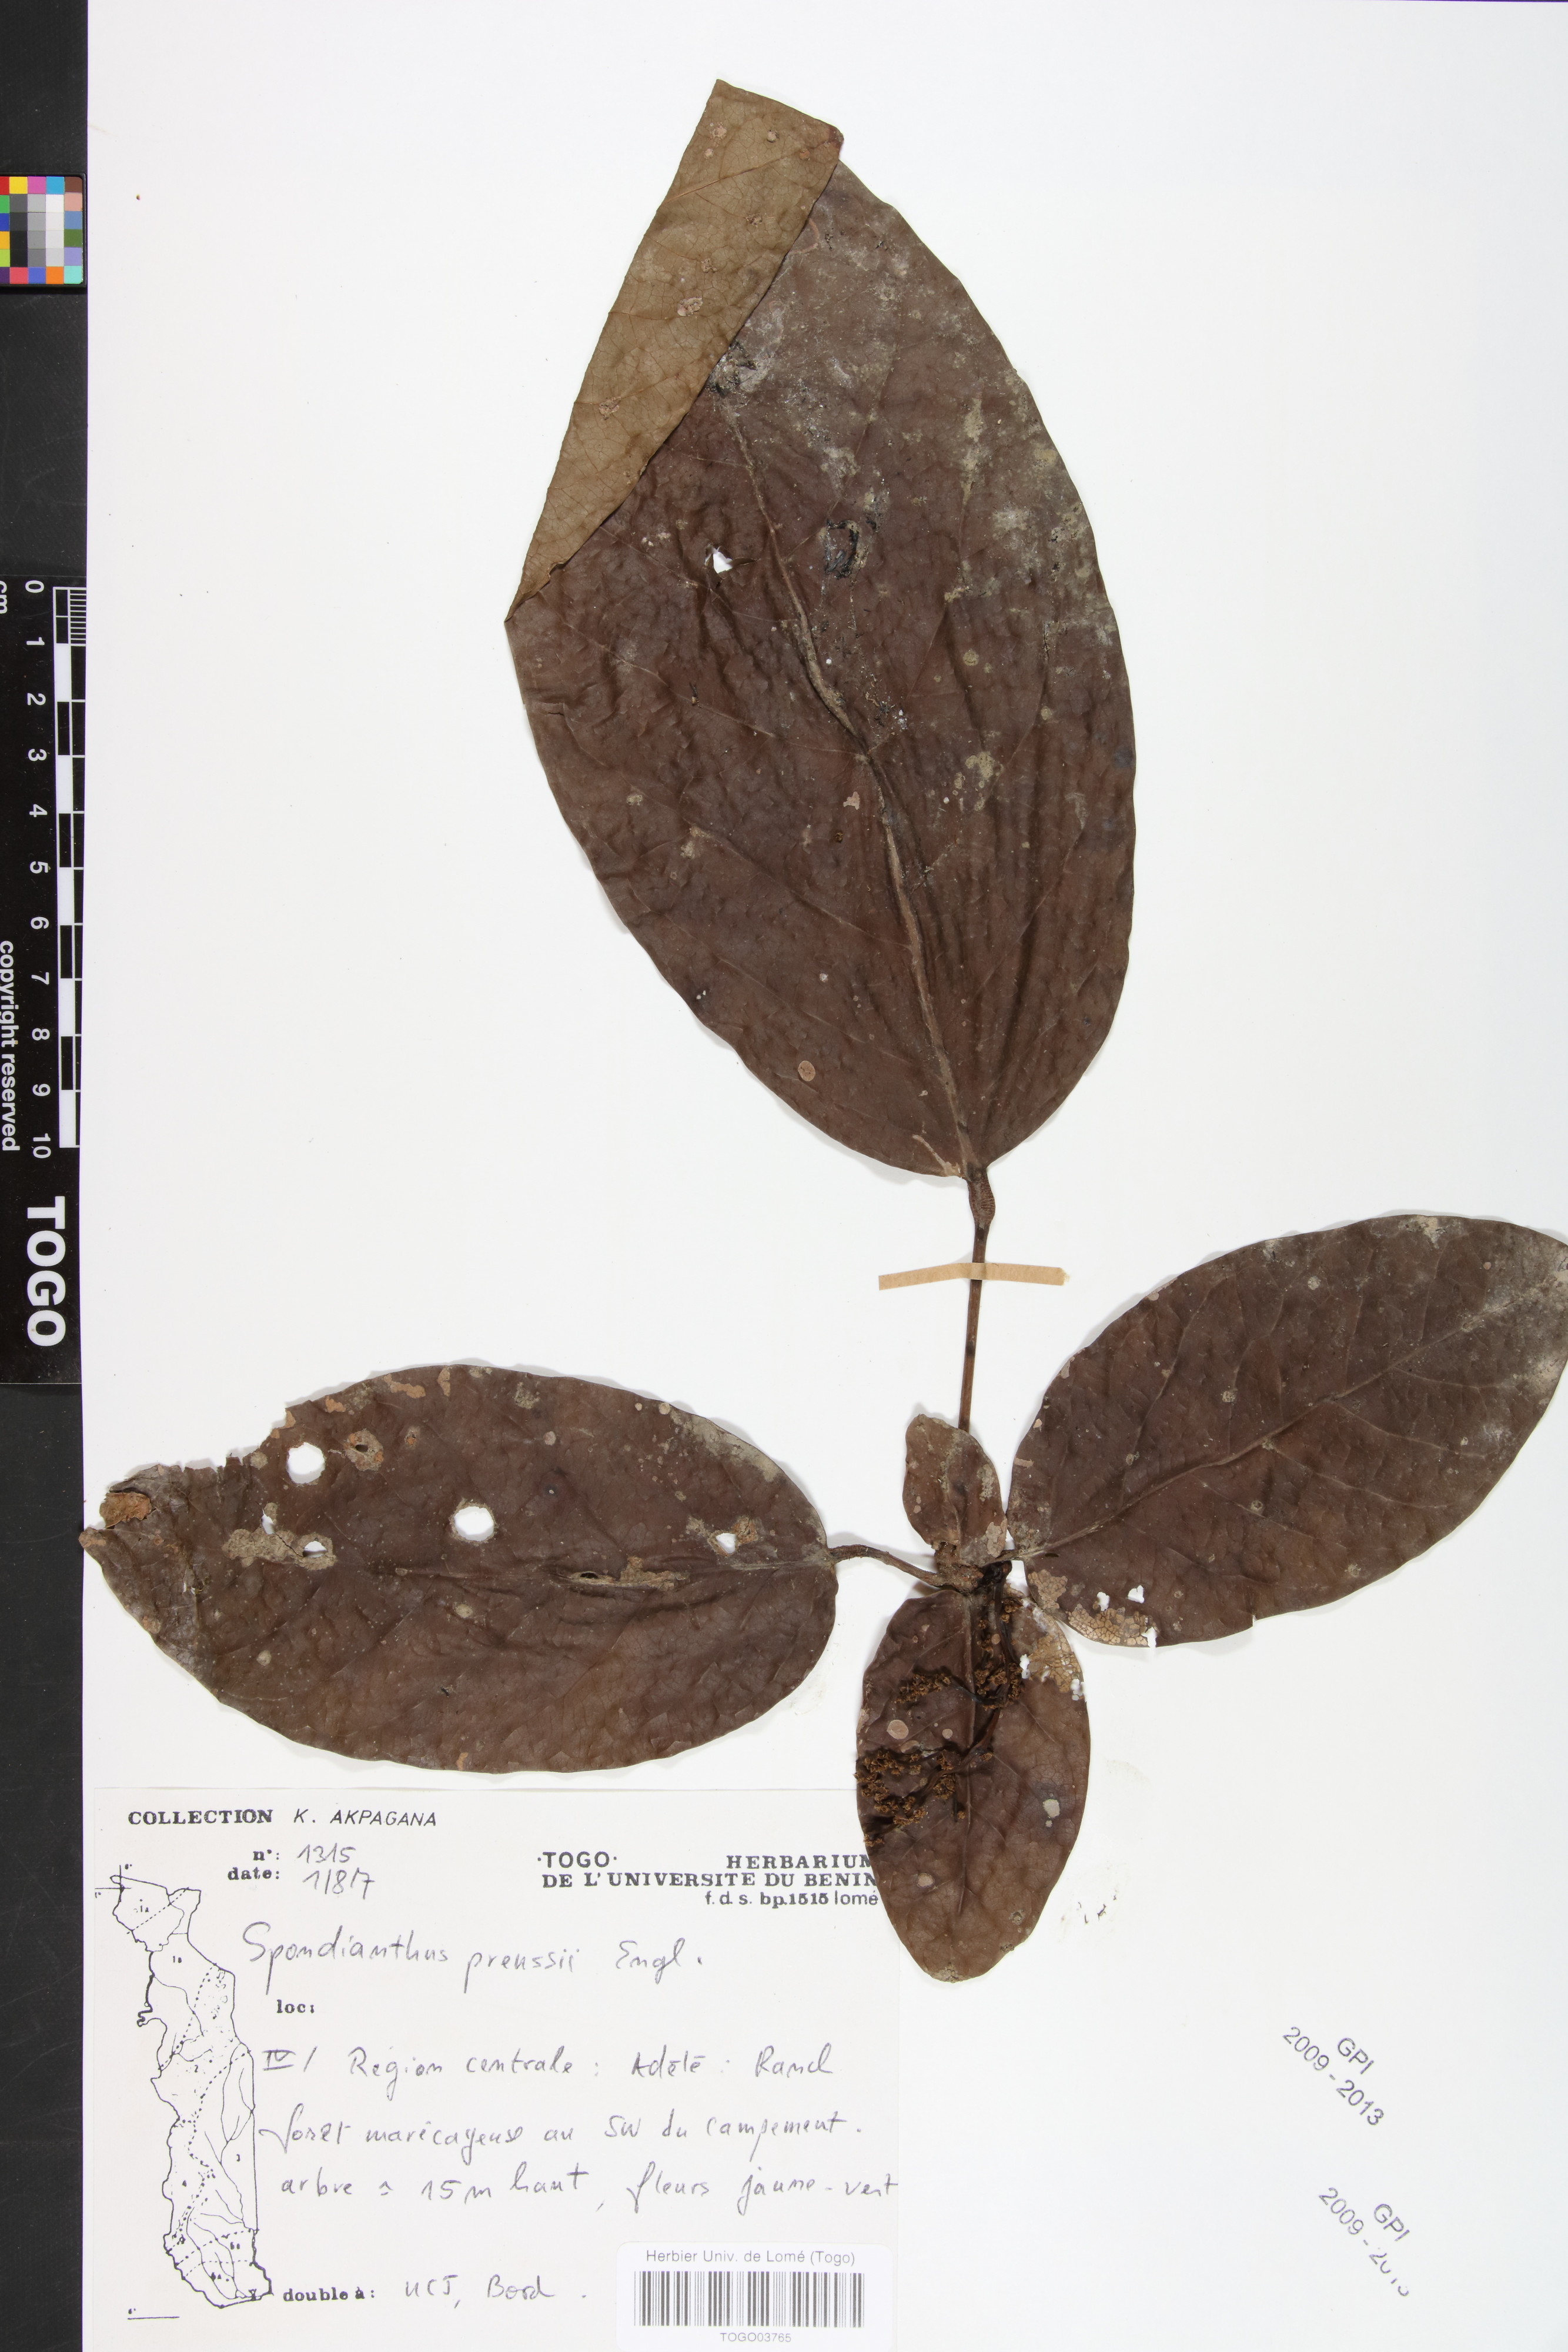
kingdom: Plantae
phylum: Tracheophyta
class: Magnoliopsida
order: Malpighiales
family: Phyllanthaceae
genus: Spondianthus
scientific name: Spondianthus preussii
